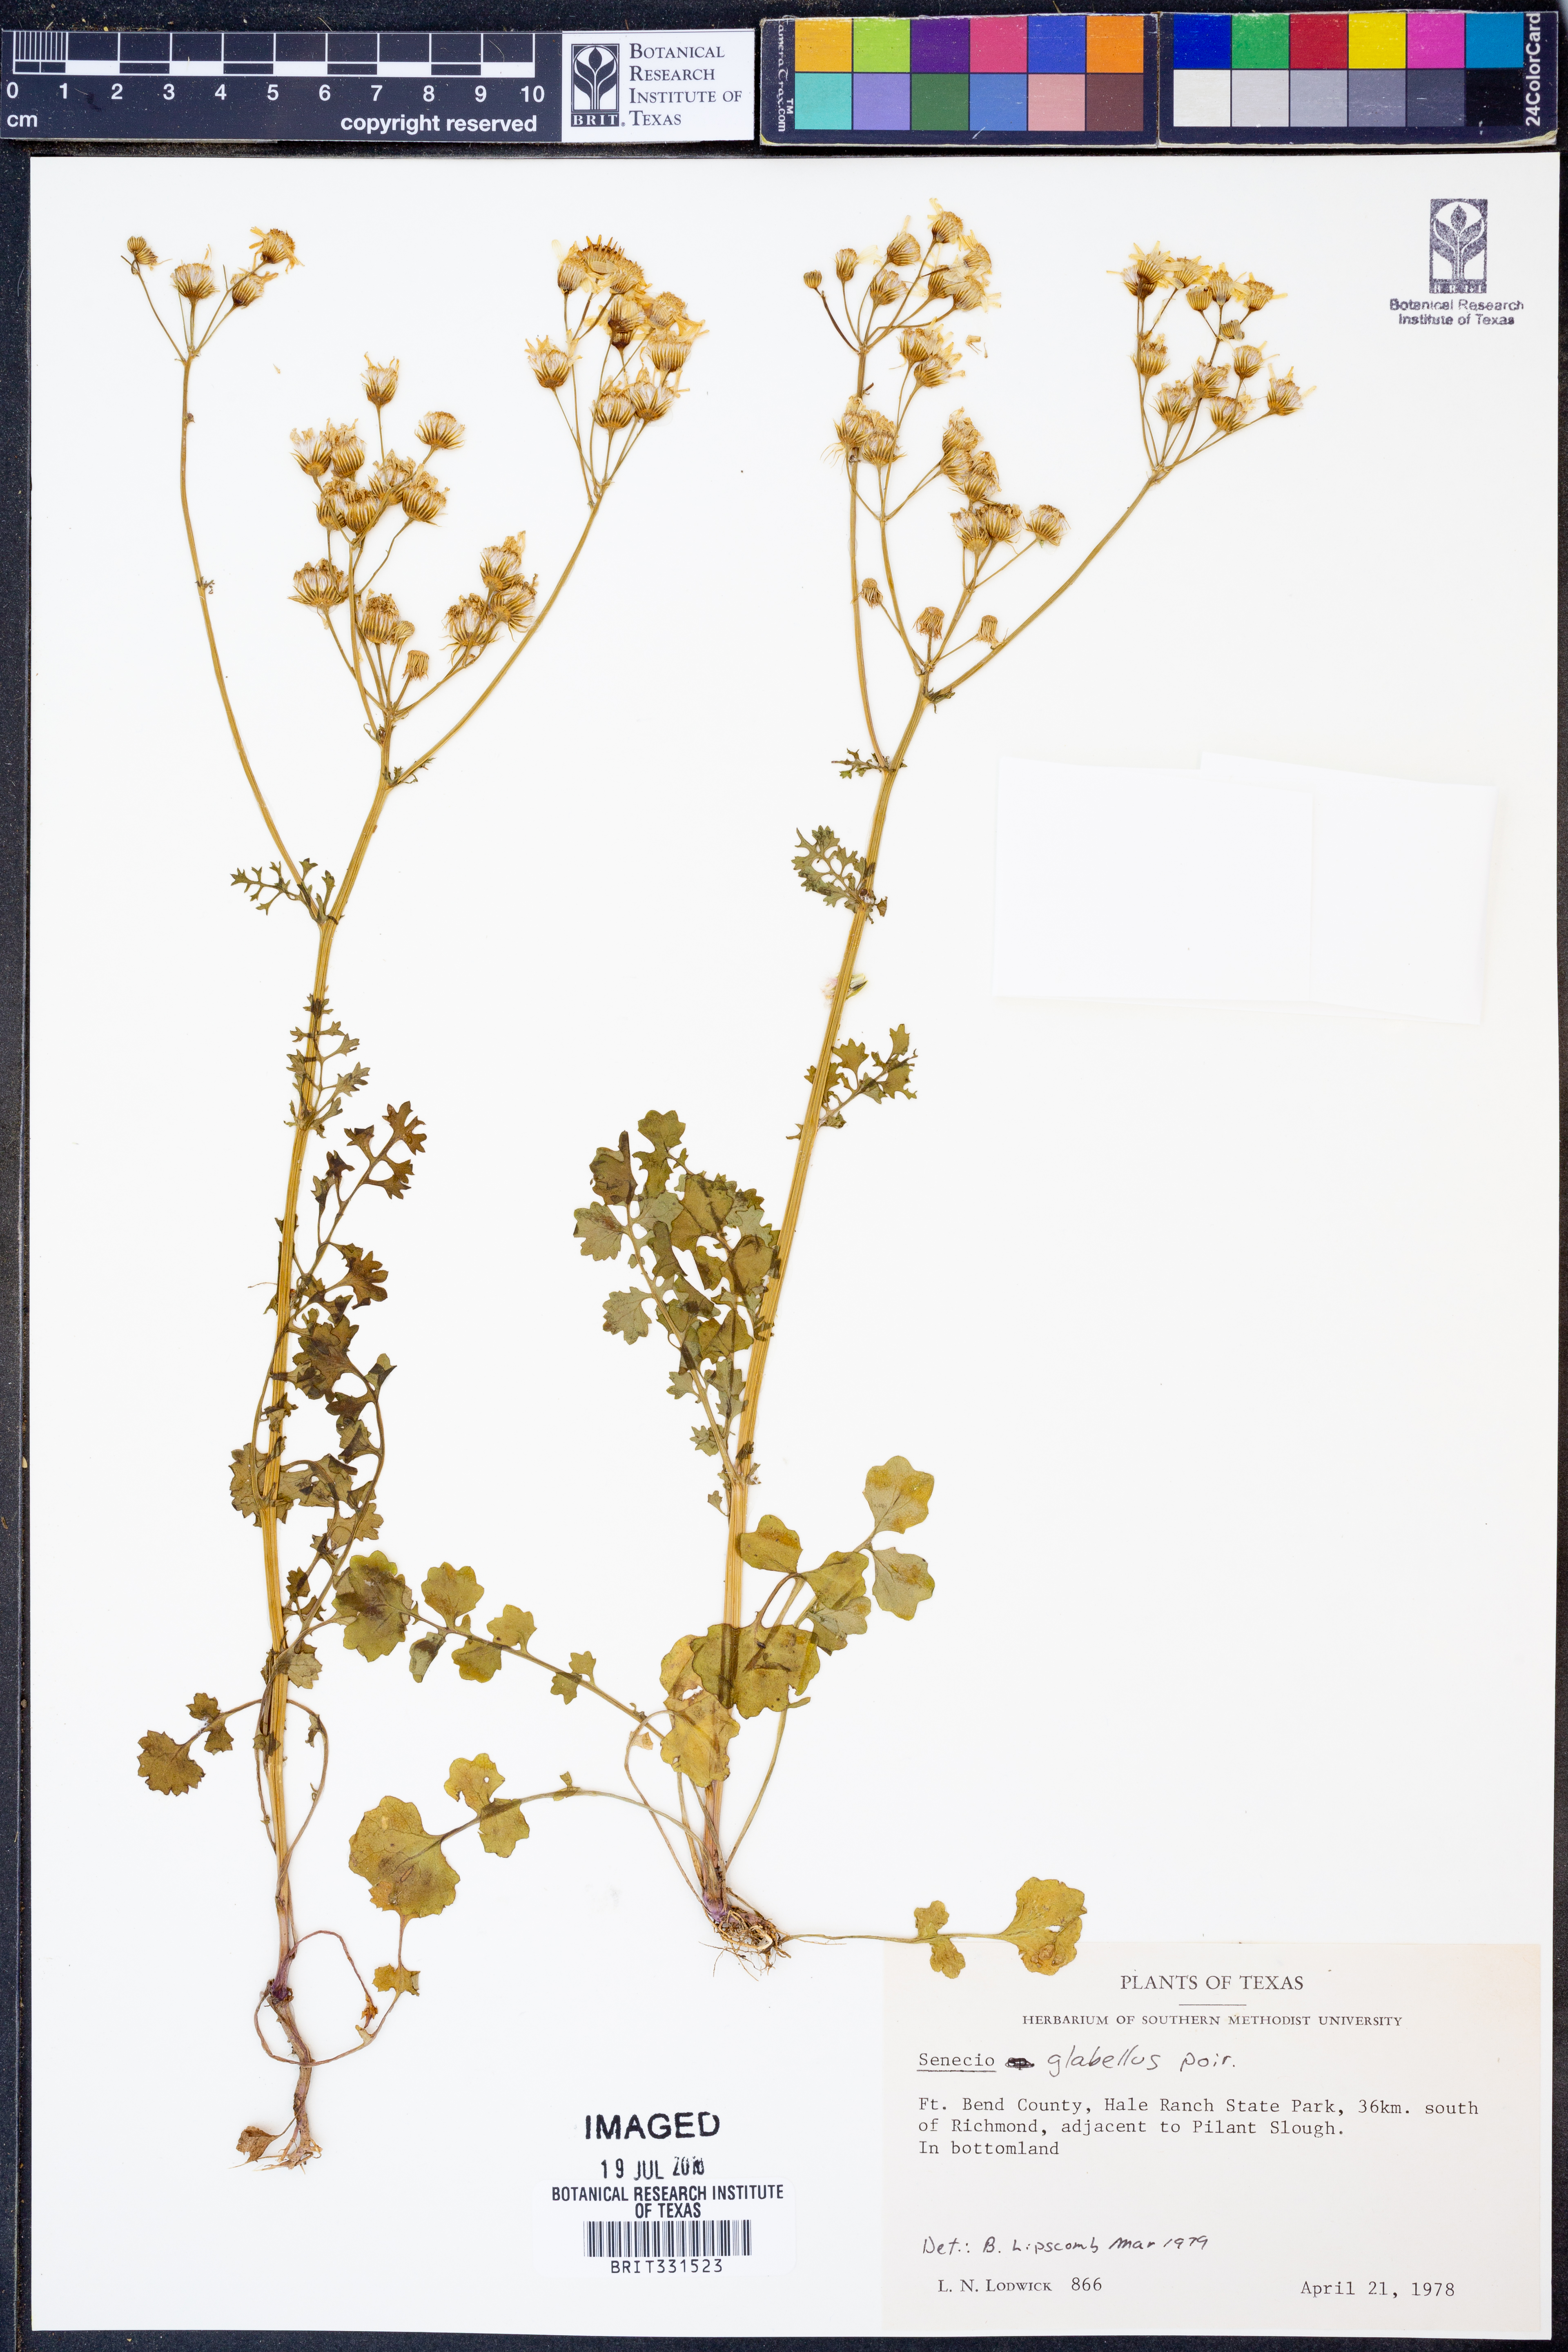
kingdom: Plantae
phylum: Tracheophyta
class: Magnoliopsida
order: Asterales
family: Asteraceae
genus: Tephroseris
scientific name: Tephroseris praticola
